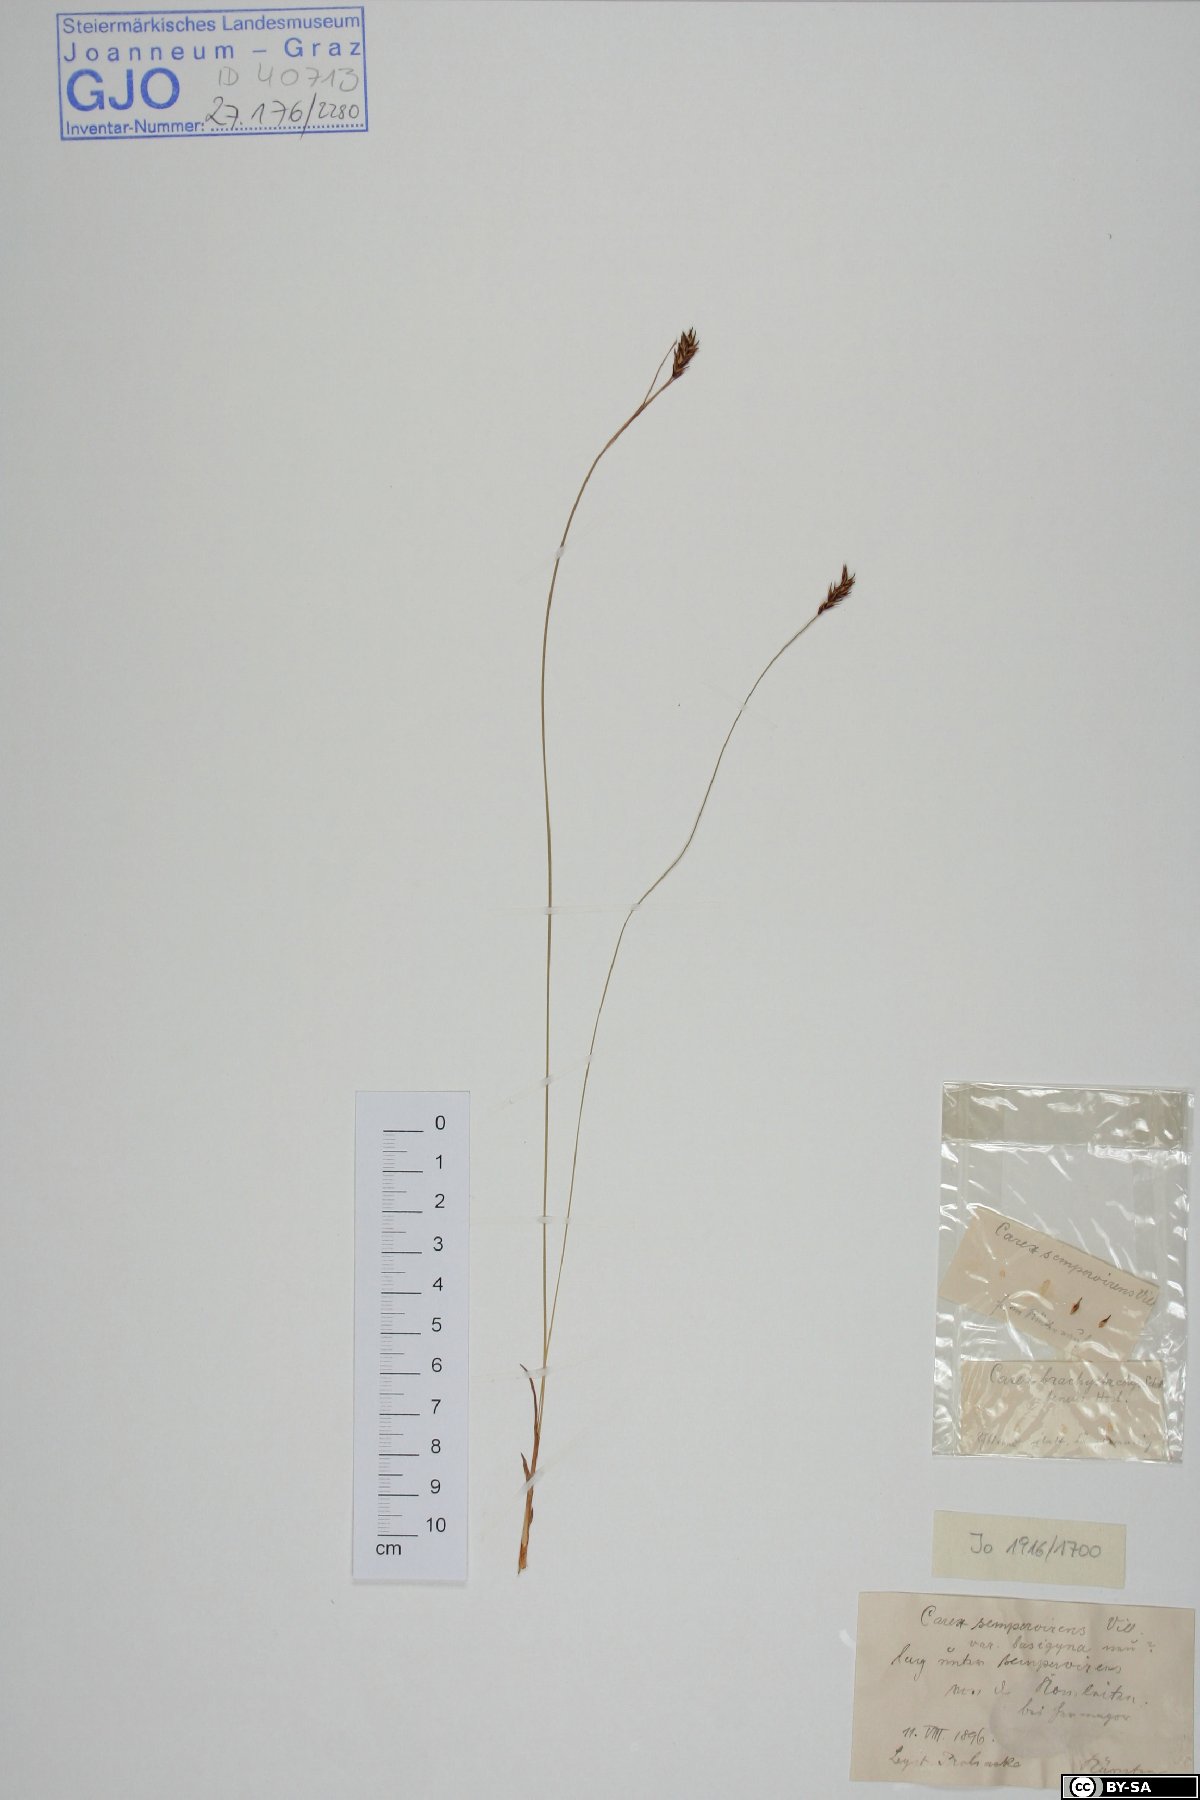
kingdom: Plantae
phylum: Tracheophyta
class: Liliopsida
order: Poales
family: Cyperaceae
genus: Carex
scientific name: Carex sempervirens
